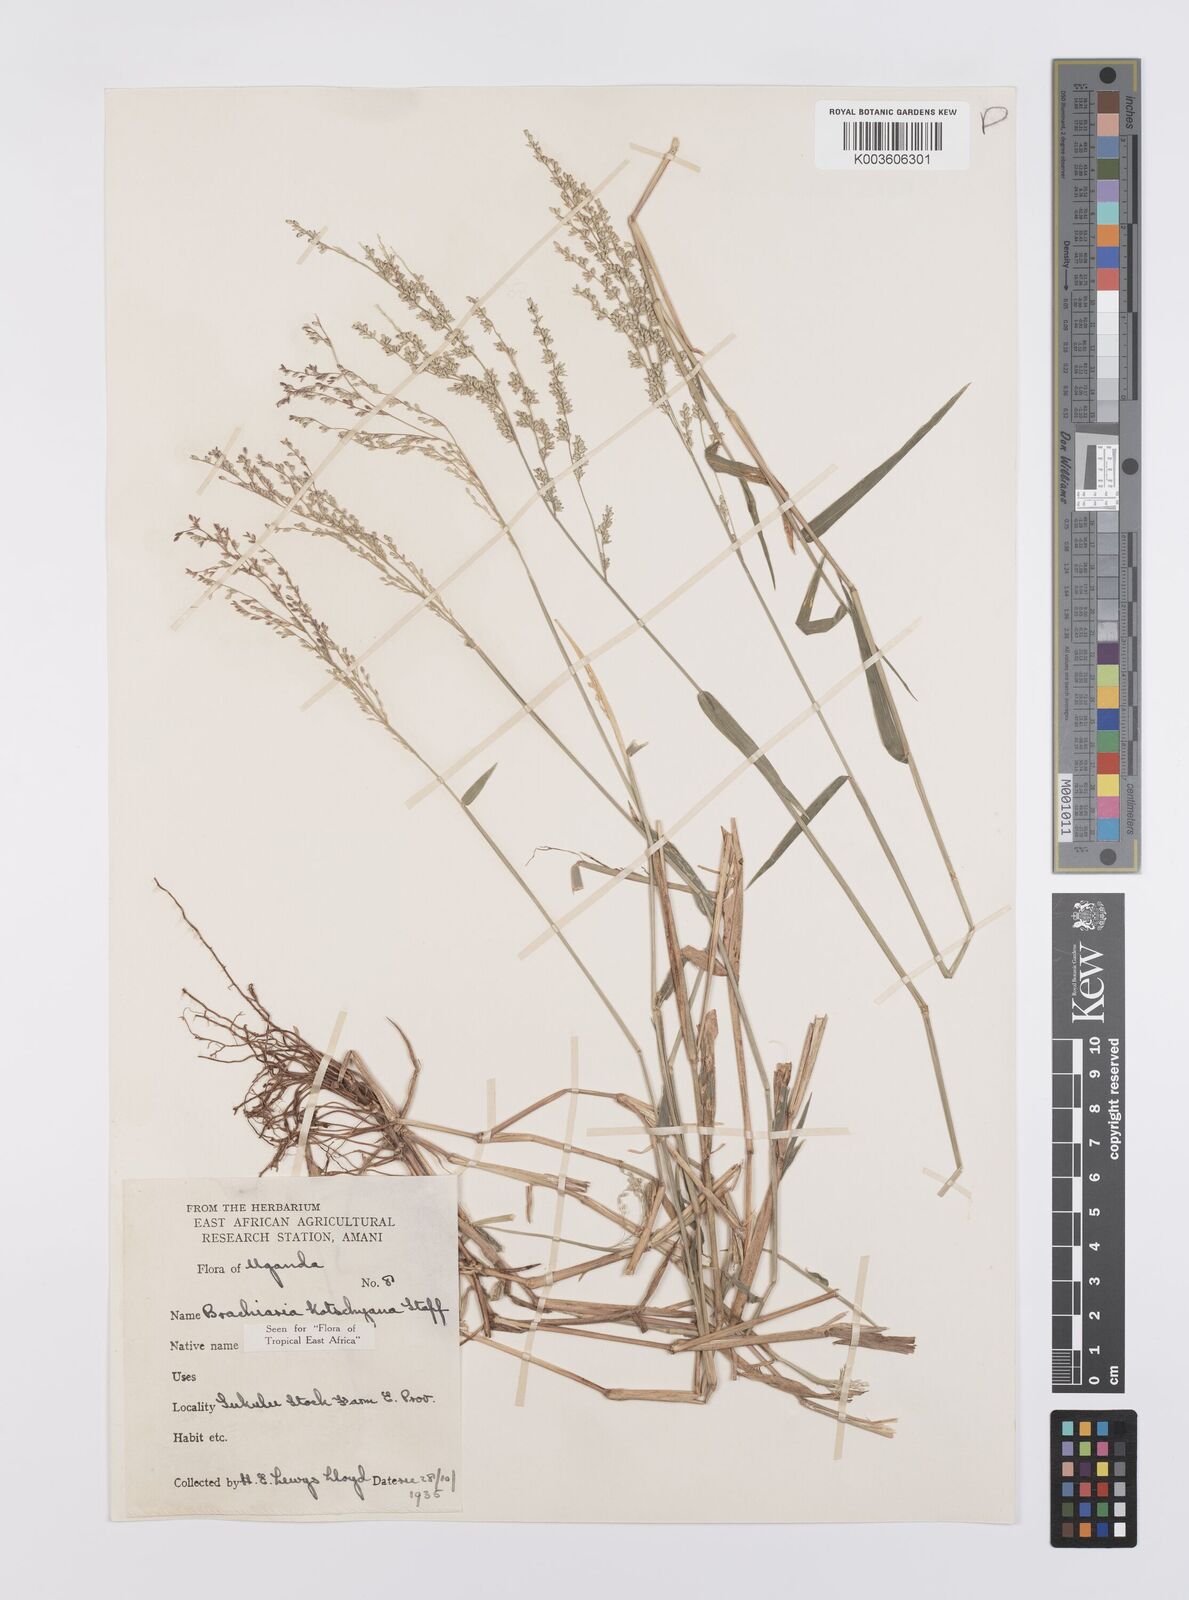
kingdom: Plantae
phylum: Tracheophyta
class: Liliopsida
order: Poales
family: Poaceae
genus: Urochloa
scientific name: Urochloa comata
